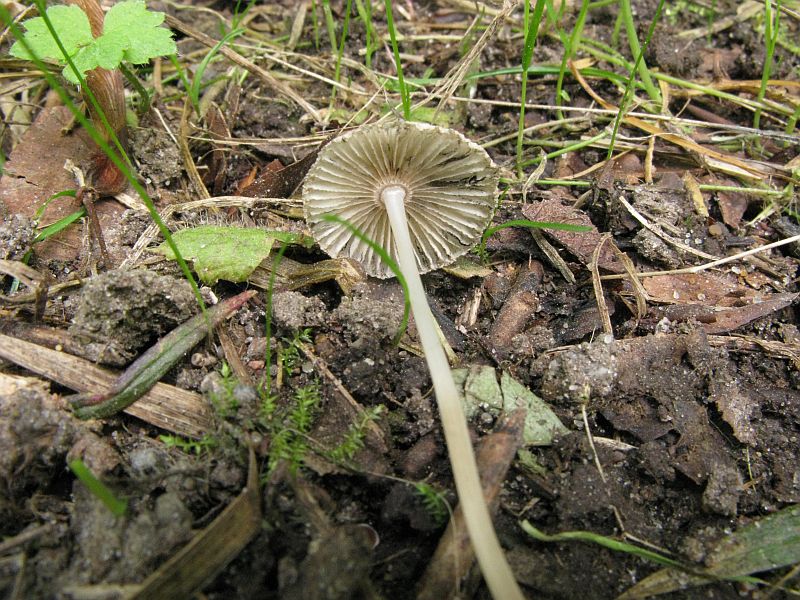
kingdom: Fungi
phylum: Basidiomycota
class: Agaricomycetes
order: Agaricales
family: Psathyrellaceae
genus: Parasola
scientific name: Parasola plicatilis
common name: plæne-hjulhat
